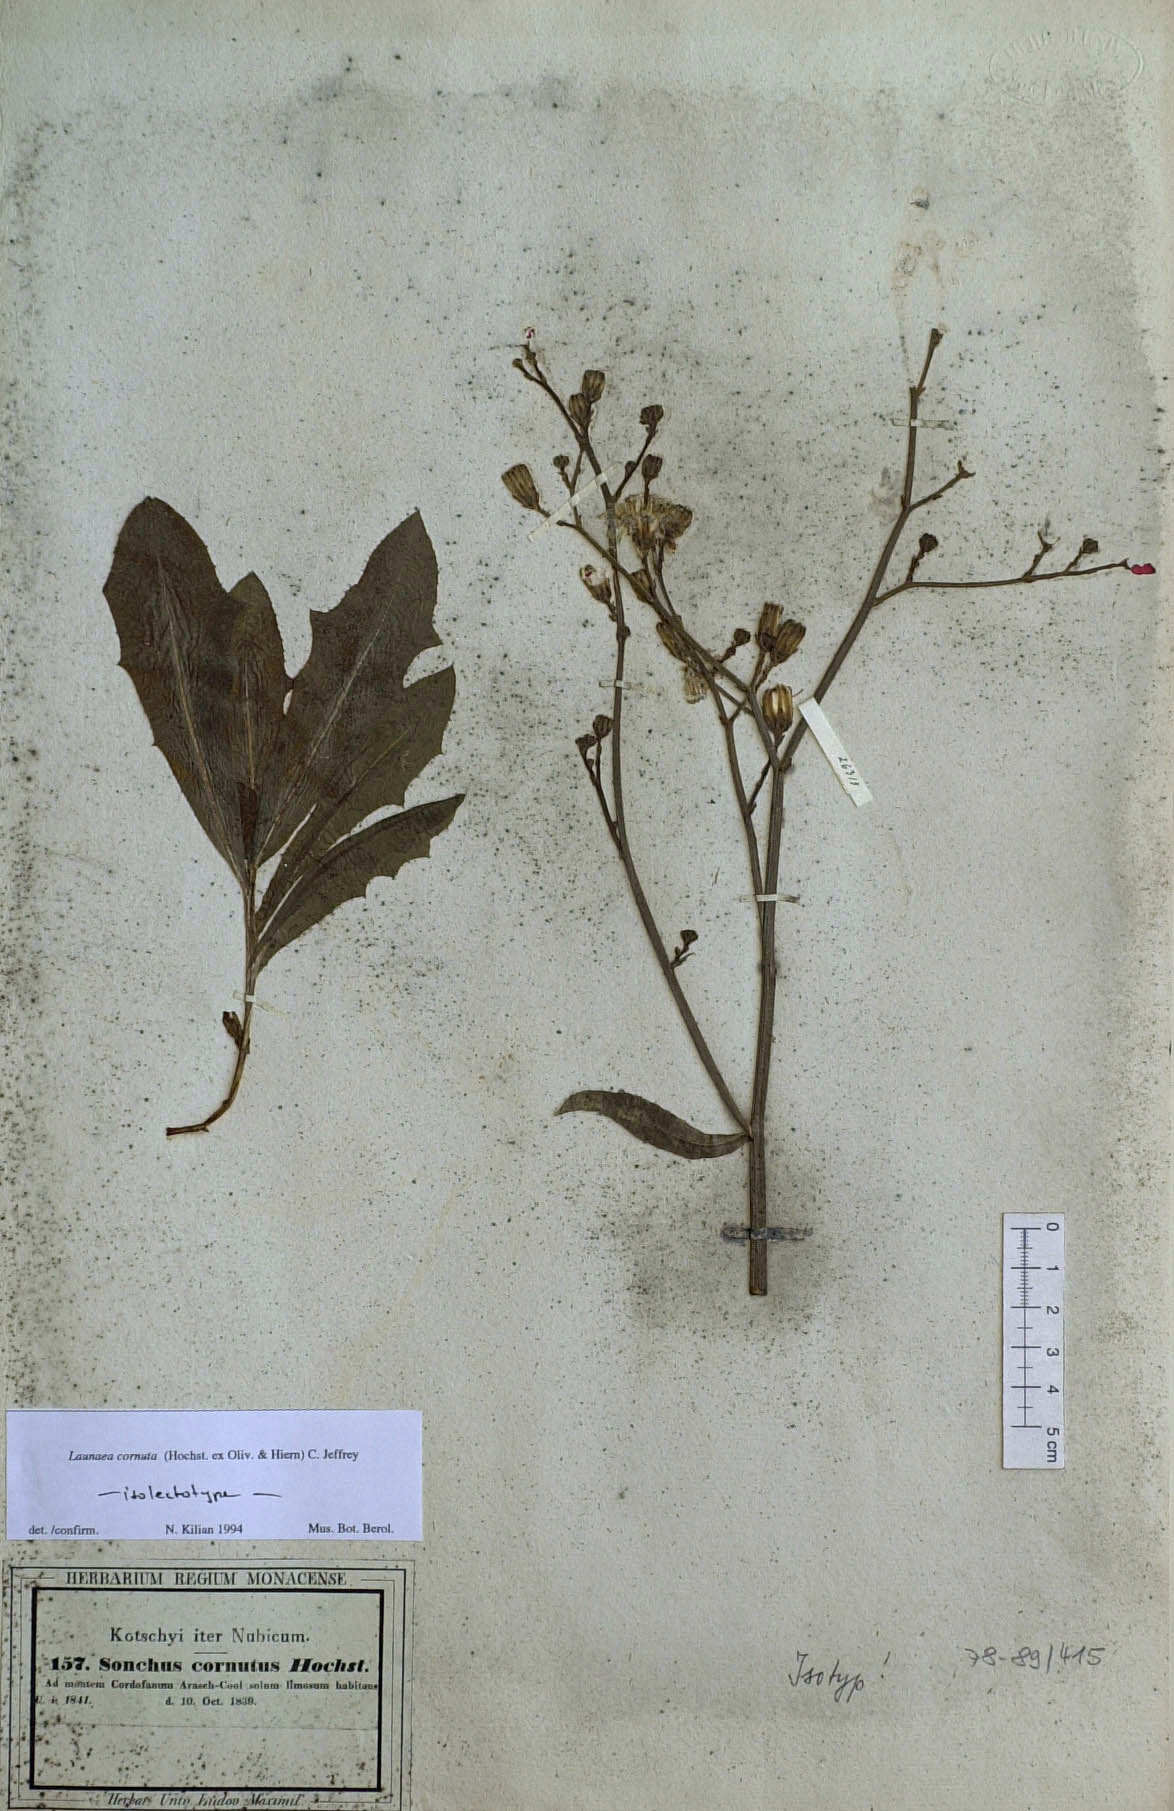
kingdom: Plantae
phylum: Tracheophyta
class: Magnoliopsida
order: Asterales
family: Asteraceae
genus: Launaea
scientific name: Launaea cornuta
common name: Bitter-lettuce
